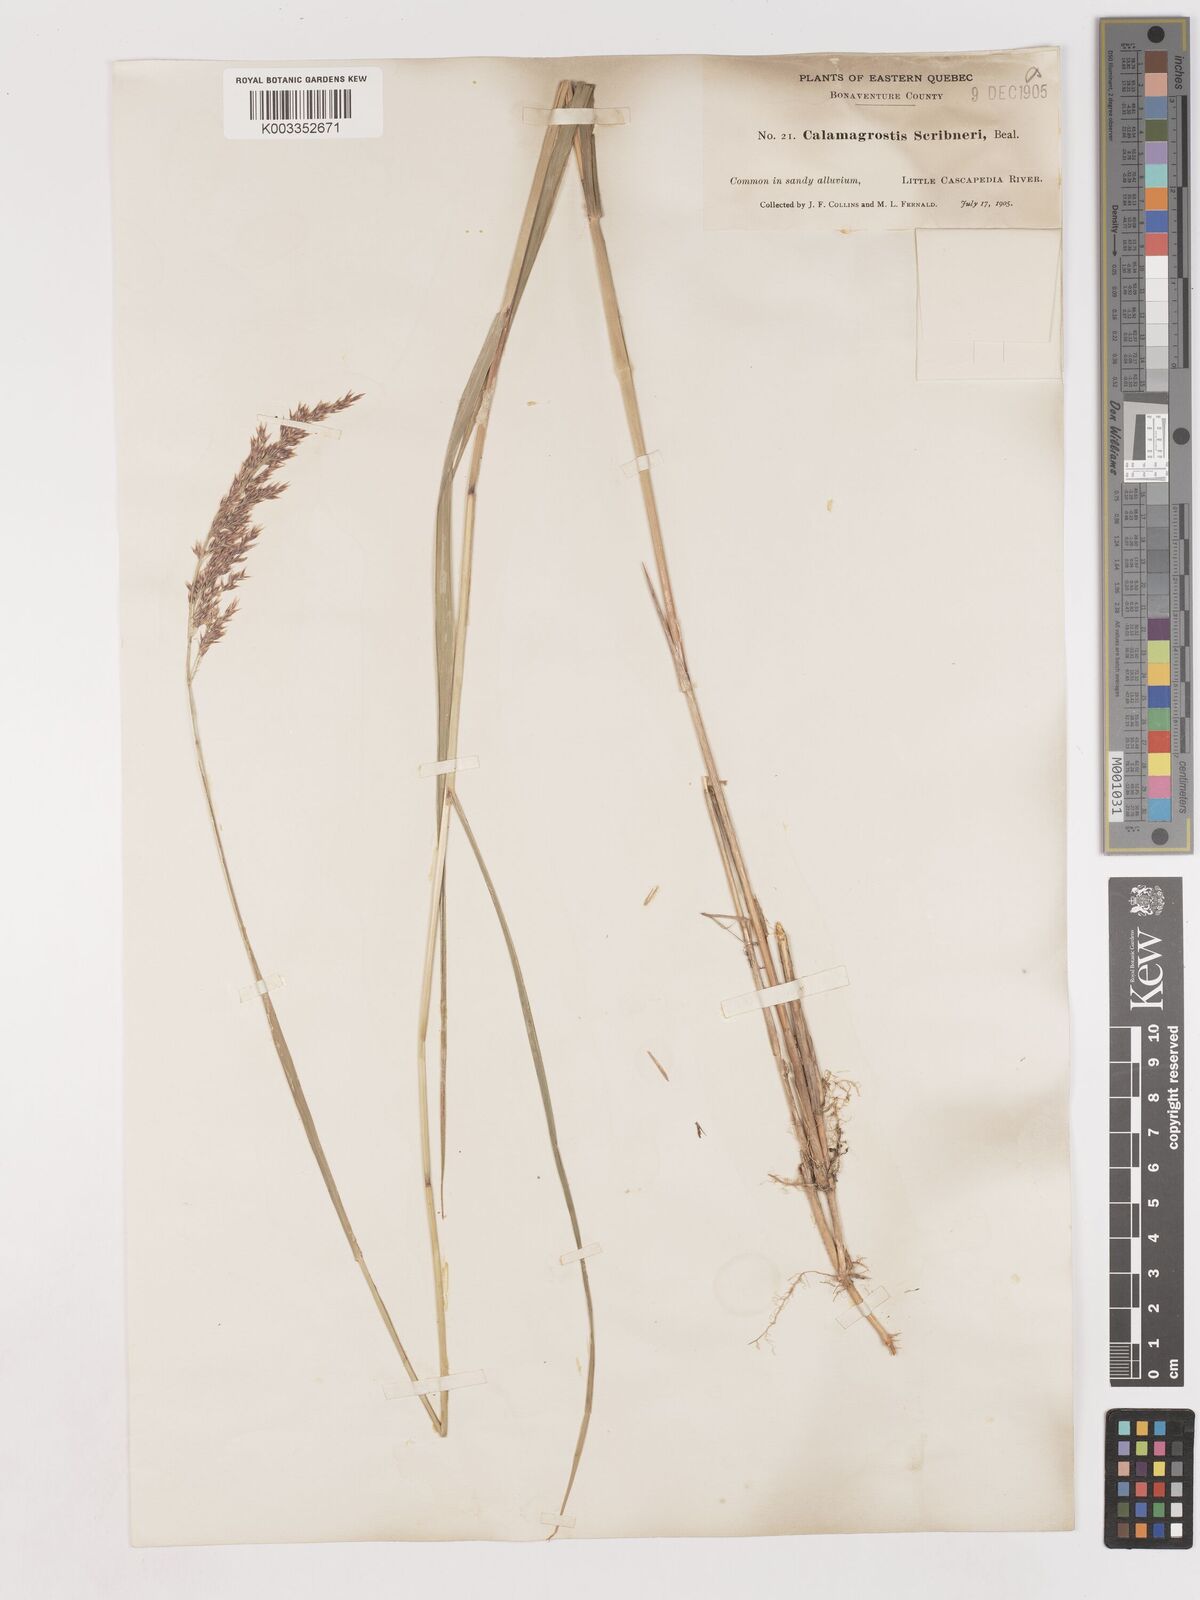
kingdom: Plantae
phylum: Tracheophyta
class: Liliopsida
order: Poales
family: Poaceae
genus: Calamagrostis
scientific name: Calamagrostis canadensis
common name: Canada bluejoint
